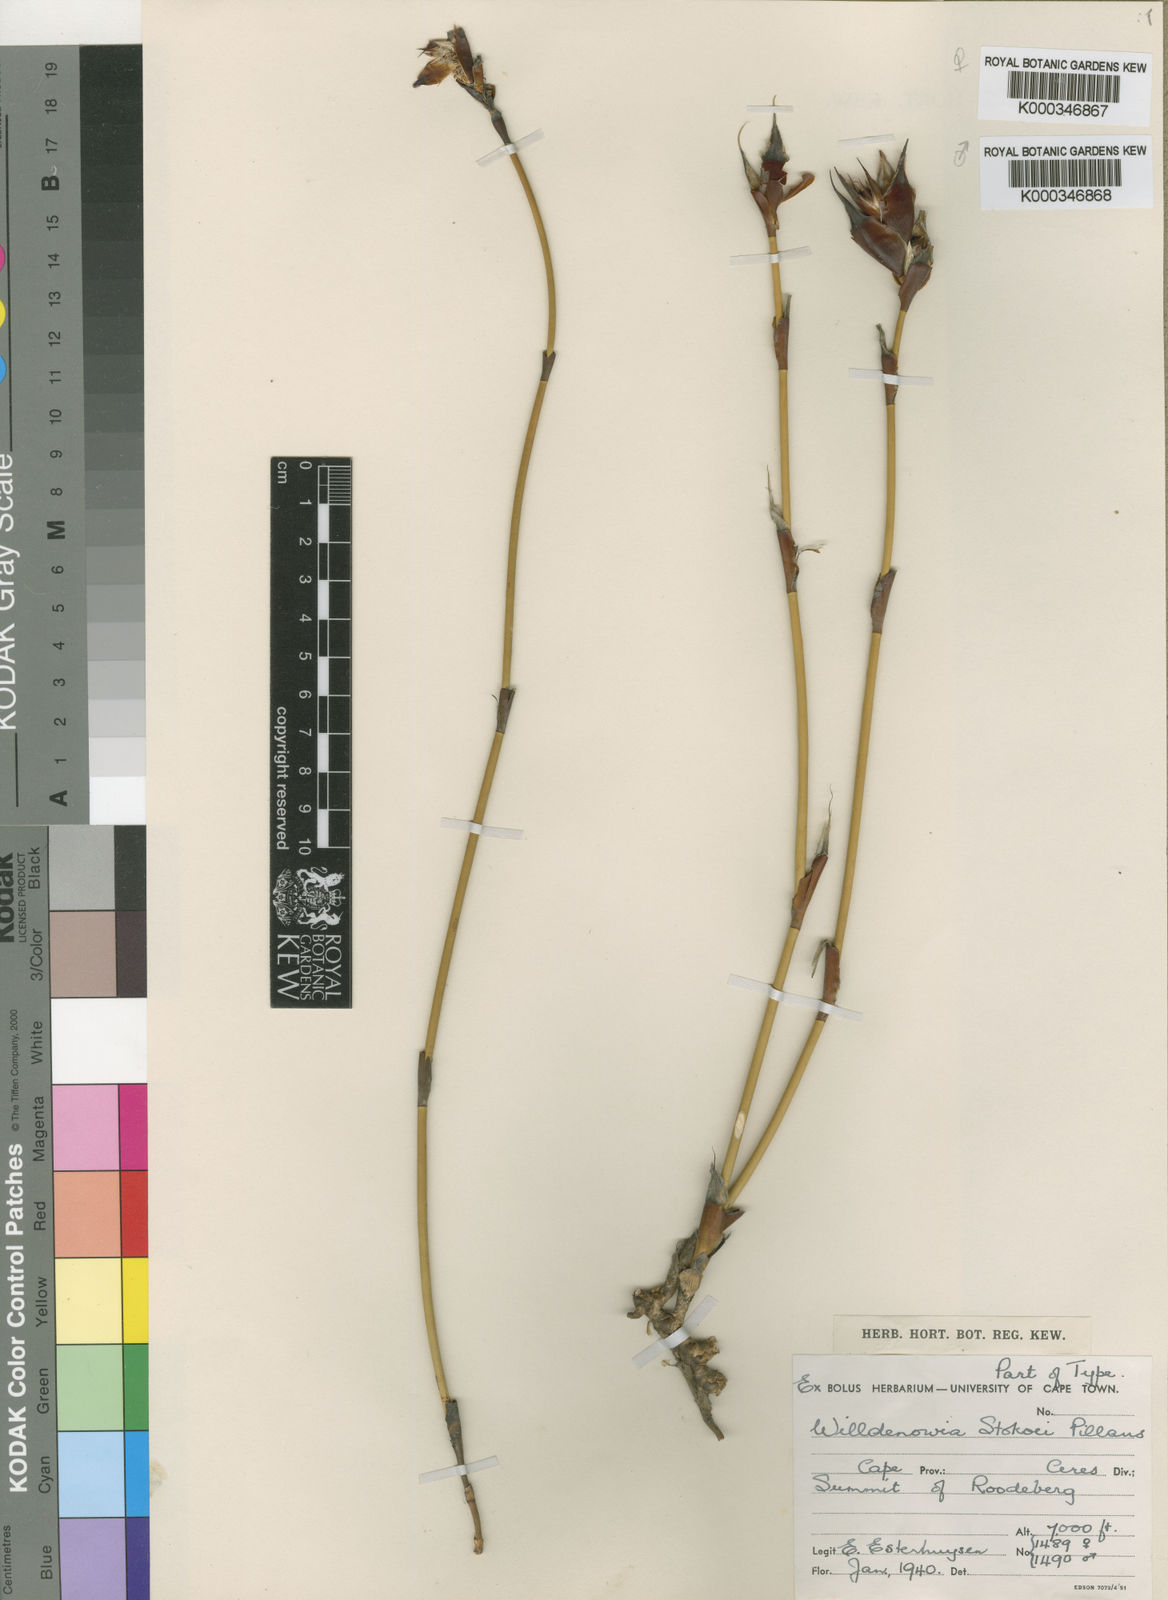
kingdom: Plantae
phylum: Tracheophyta
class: Liliopsida
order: Poales
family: Restionaceae
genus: Willdenowia
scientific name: Willdenowia stokoei
